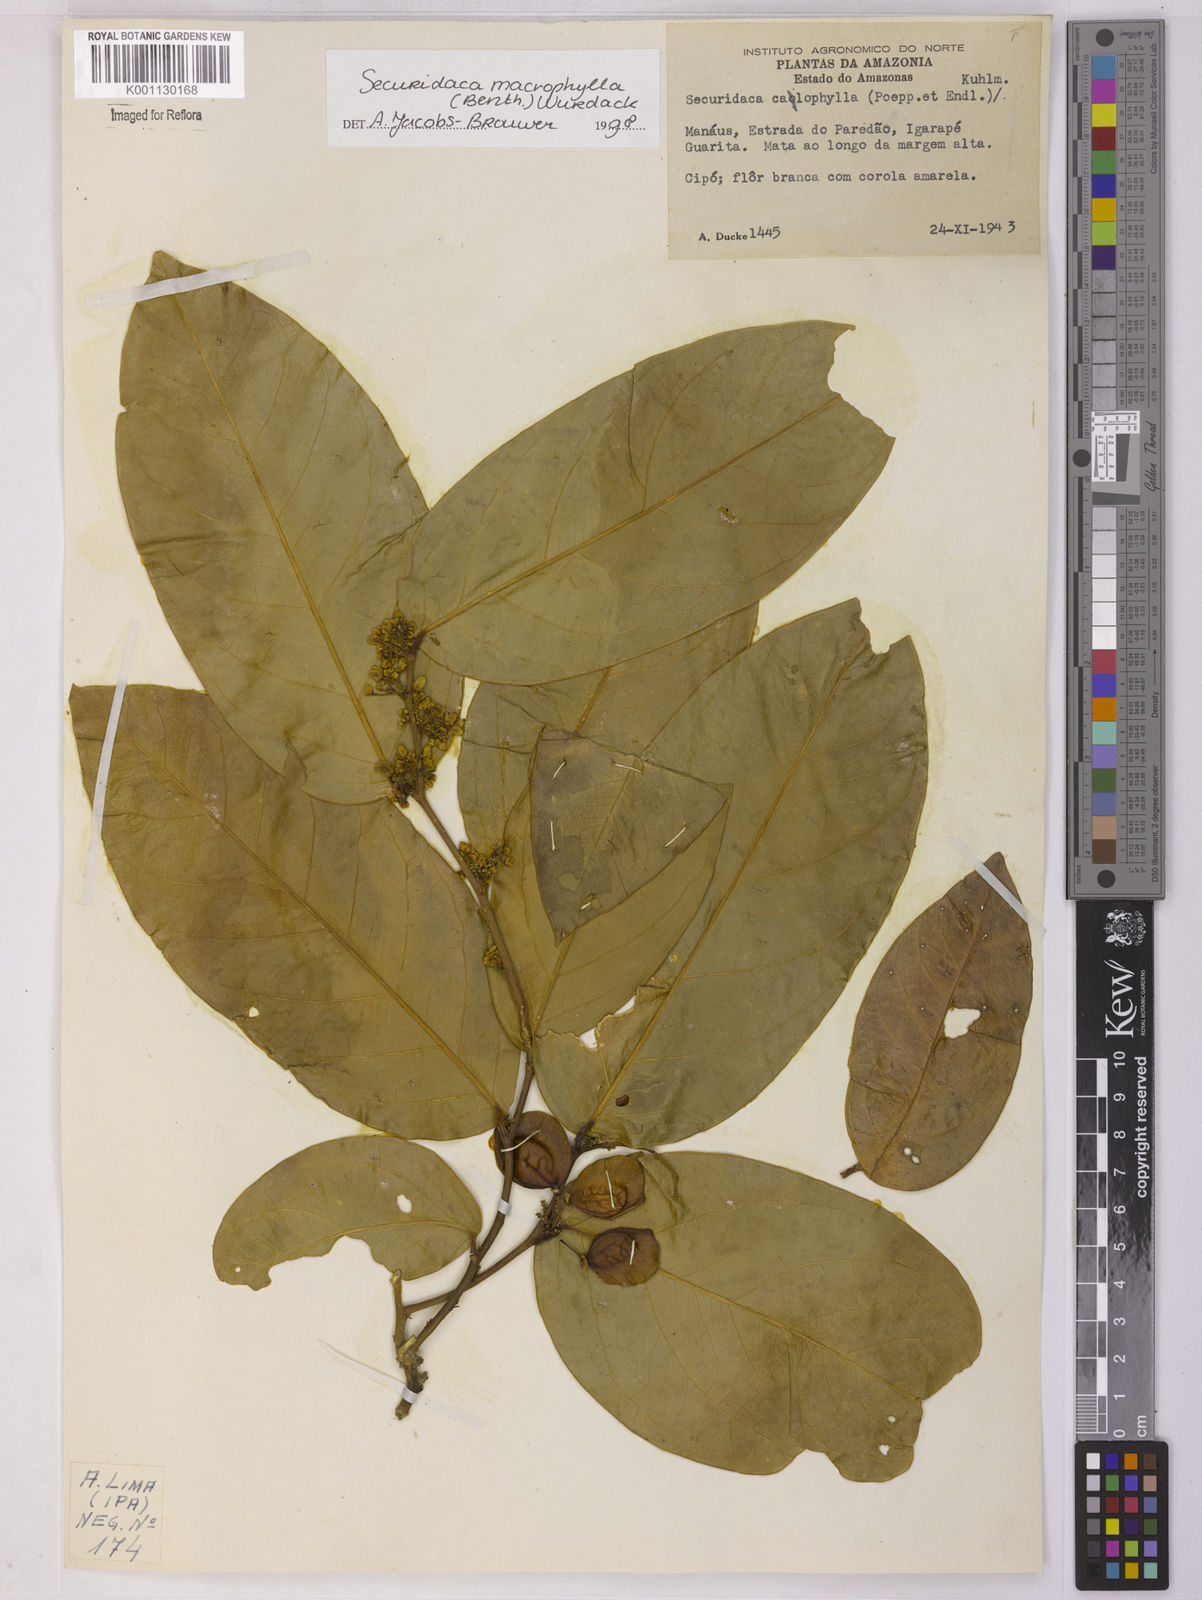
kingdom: Plantae
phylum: Tracheophyta
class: Magnoliopsida
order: Fabales
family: Polygalaceae
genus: Securidaca
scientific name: Securidaca calophylla
